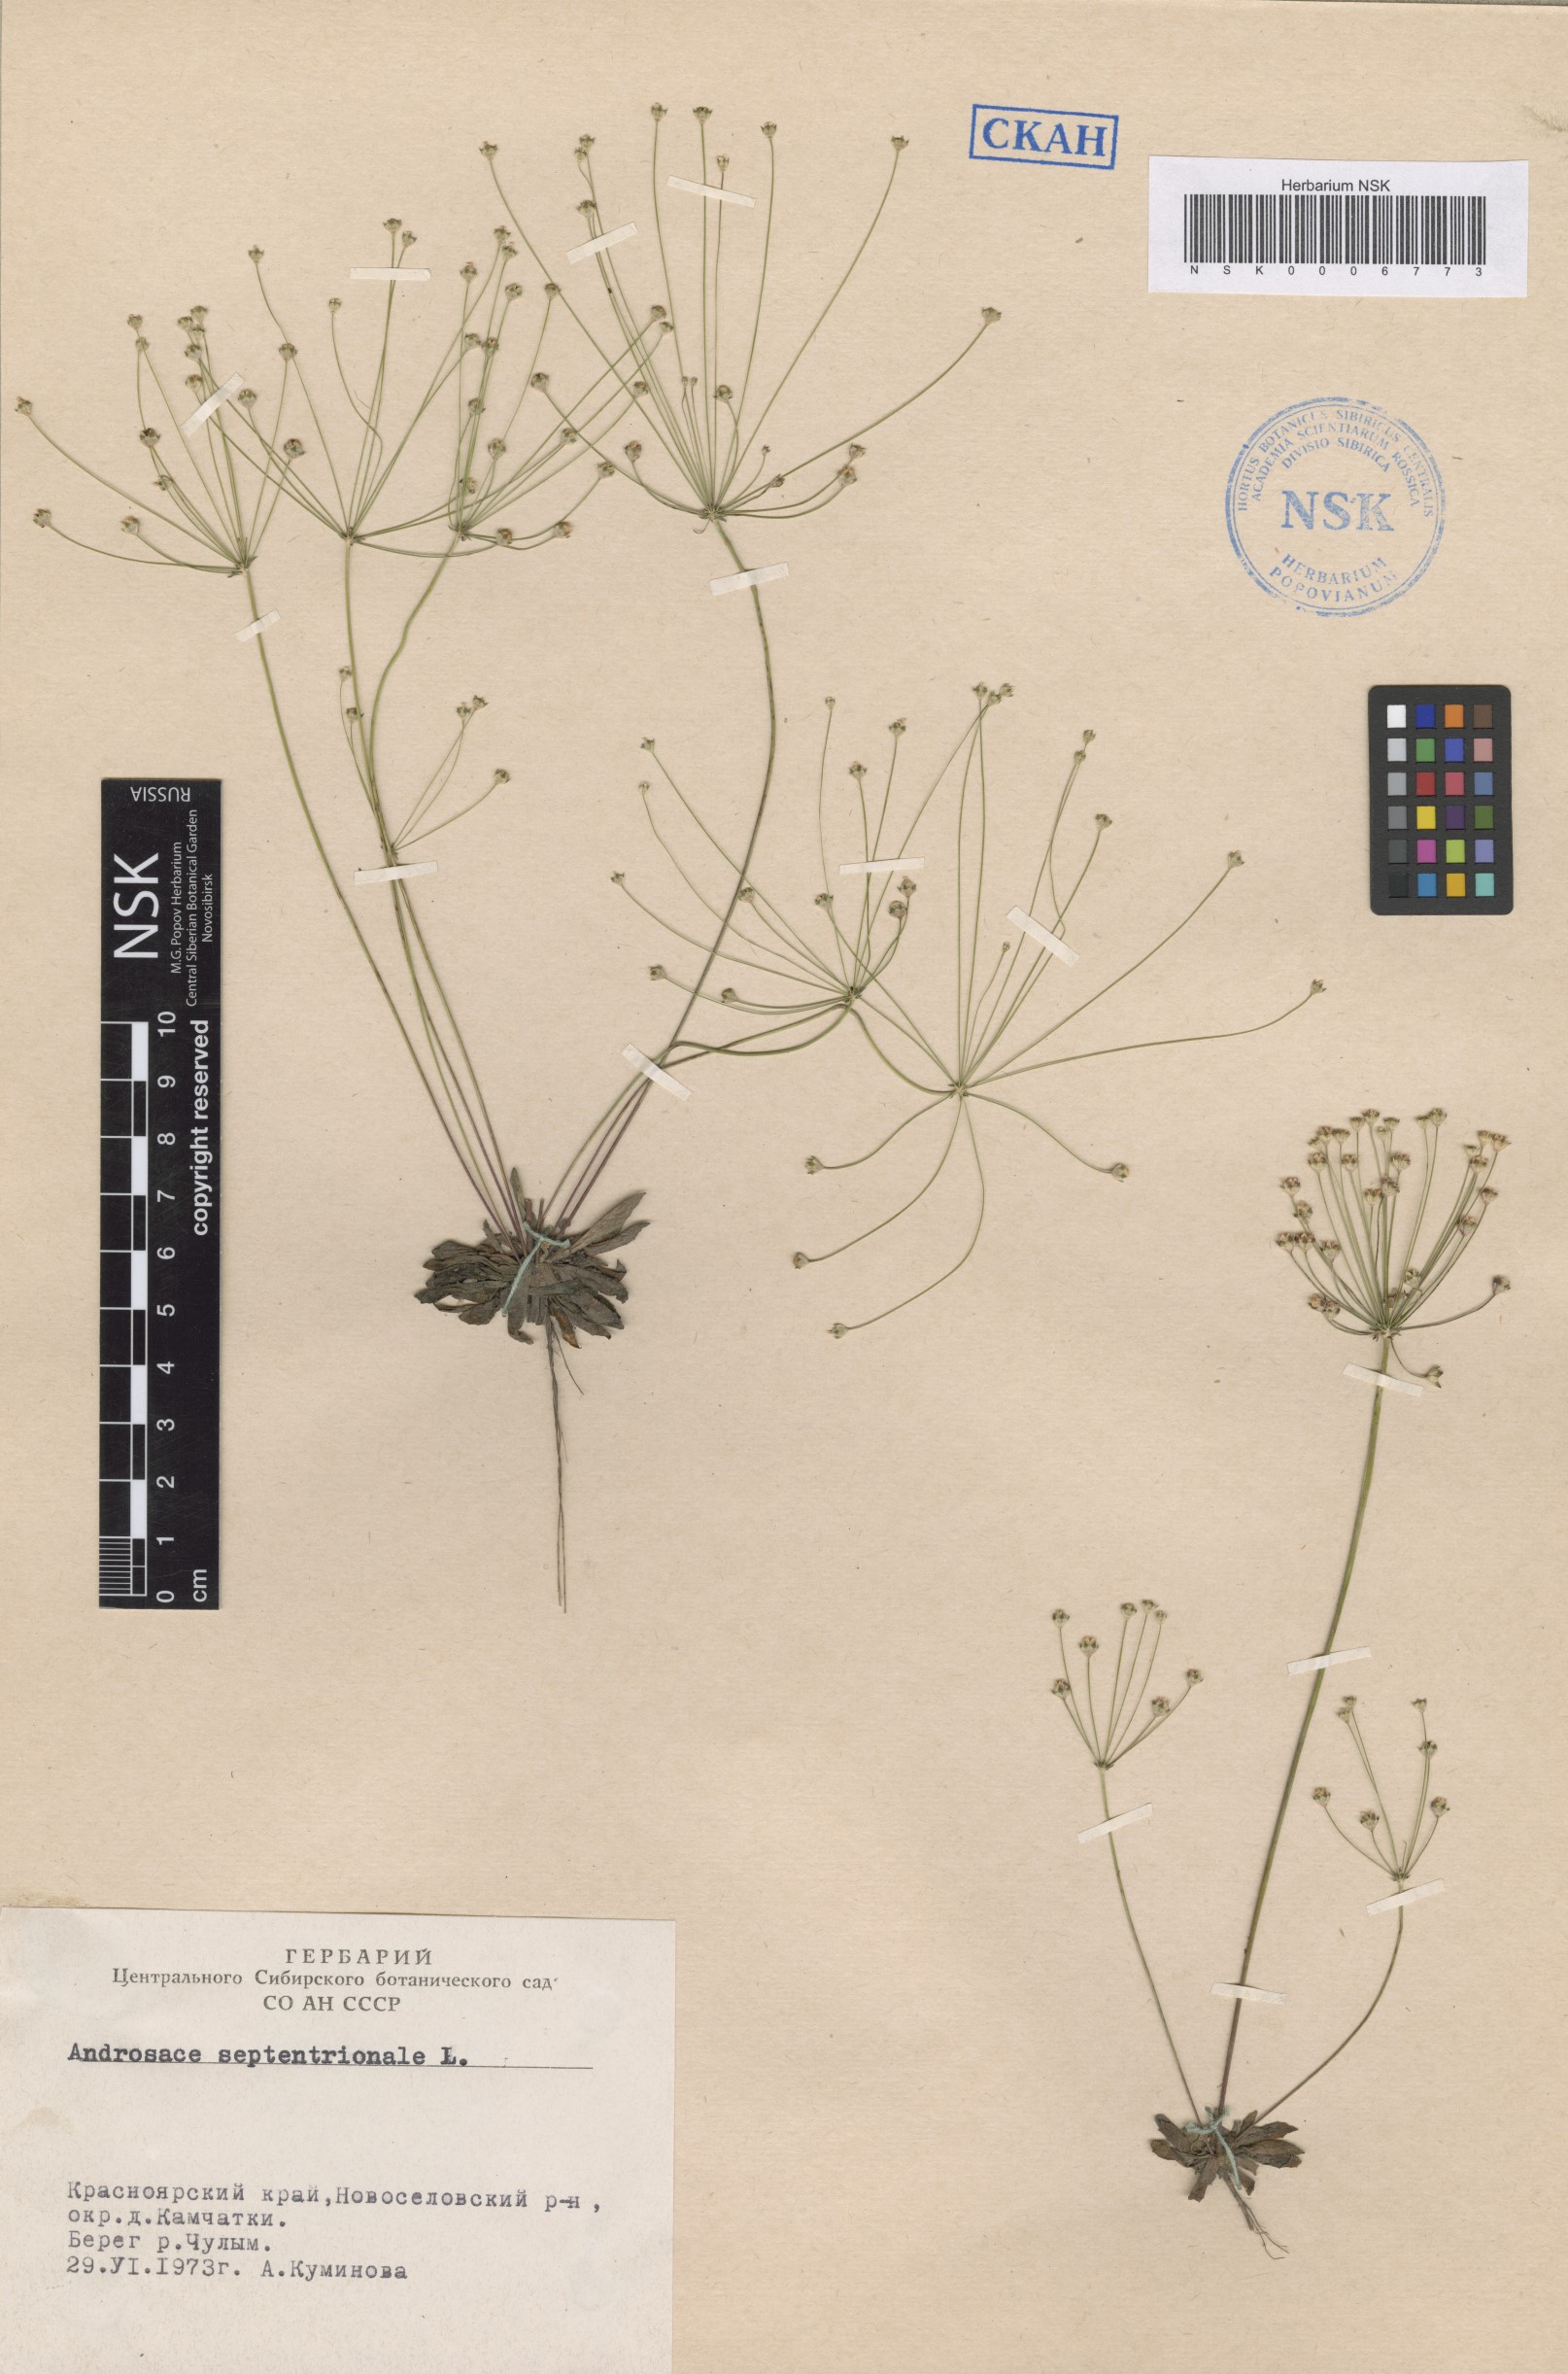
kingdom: Plantae
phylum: Tracheophyta
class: Magnoliopsida
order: Ericales
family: Primulaceae
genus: Androsace
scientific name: Androsace septentrionalis
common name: Hairy northern fairy-candelabra
